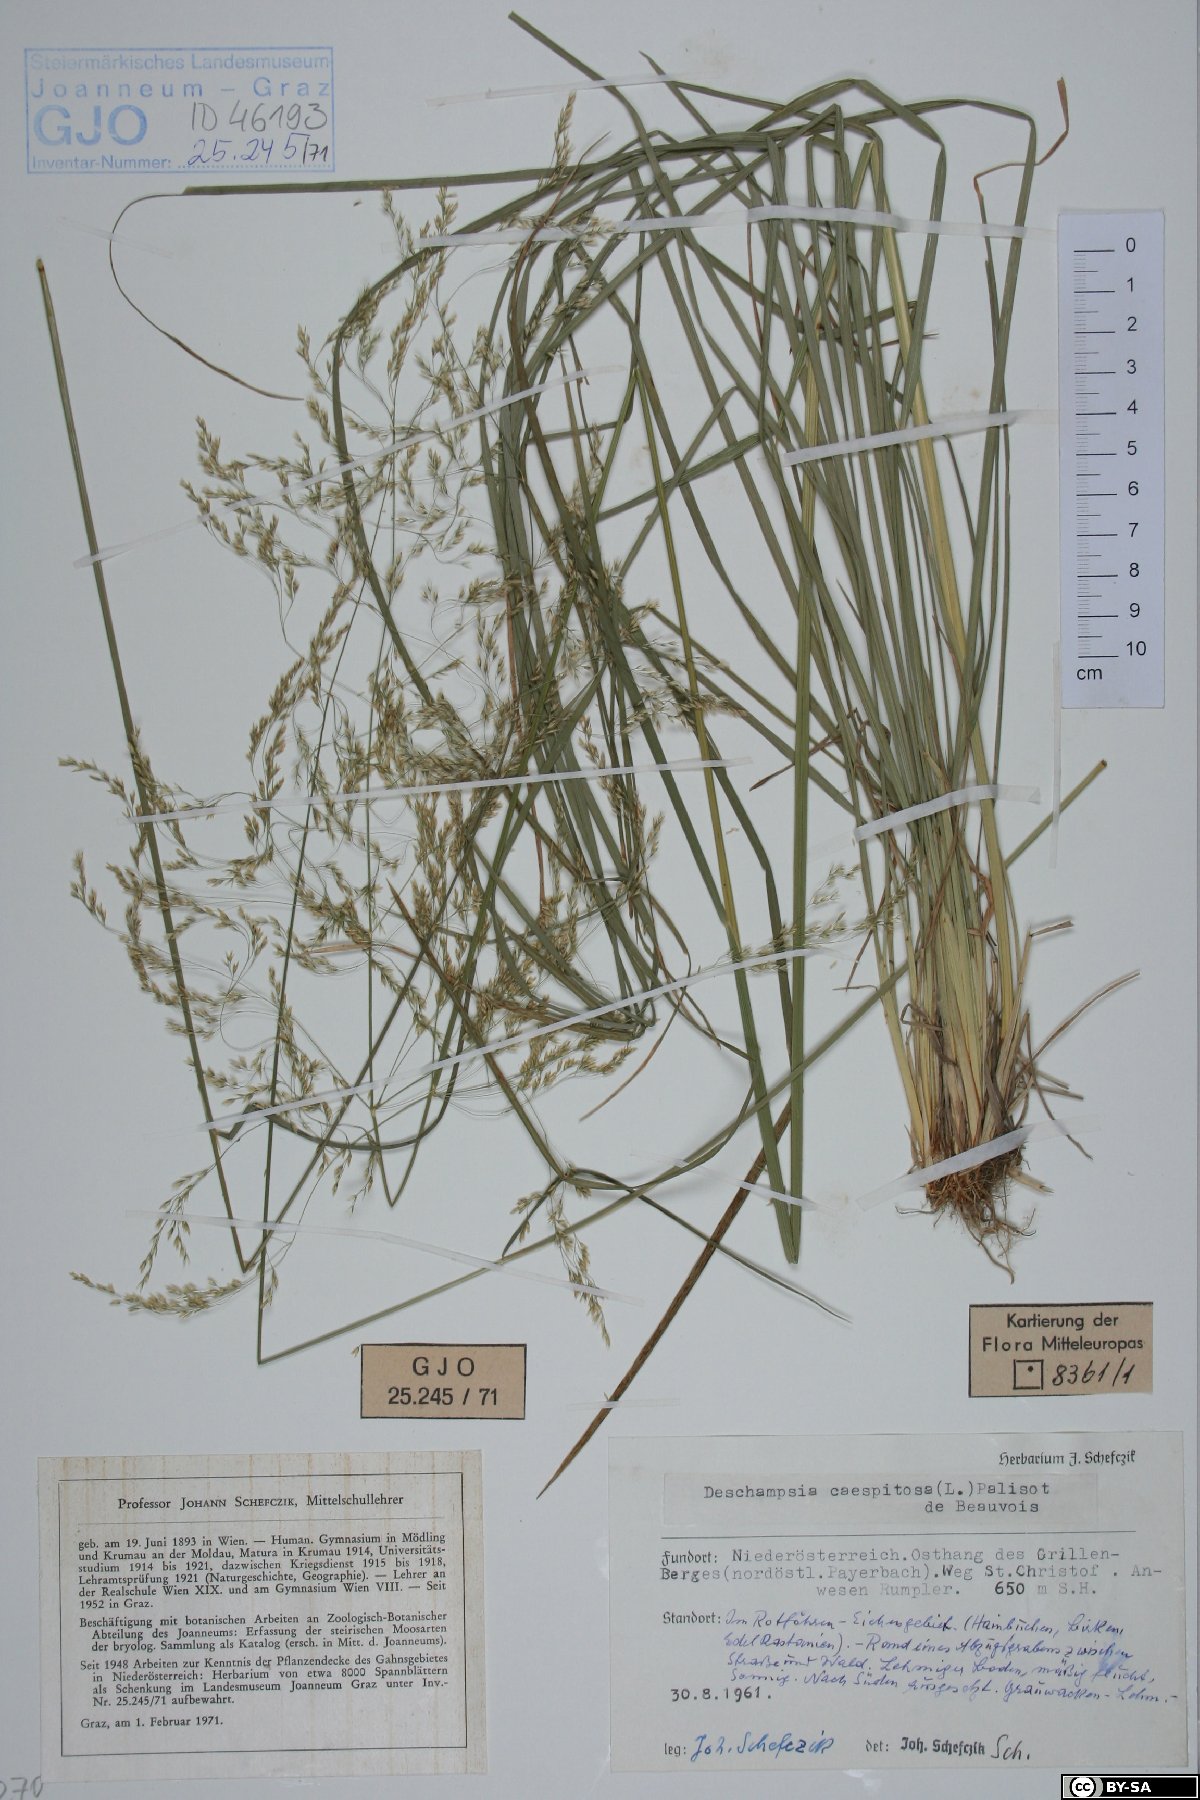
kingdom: Plantae
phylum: Tracheophyta
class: Liliopsida
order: Poales
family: Poaceae
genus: Deschampsia
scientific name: Deschampsia cespitosa
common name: Tufted hair-grass
